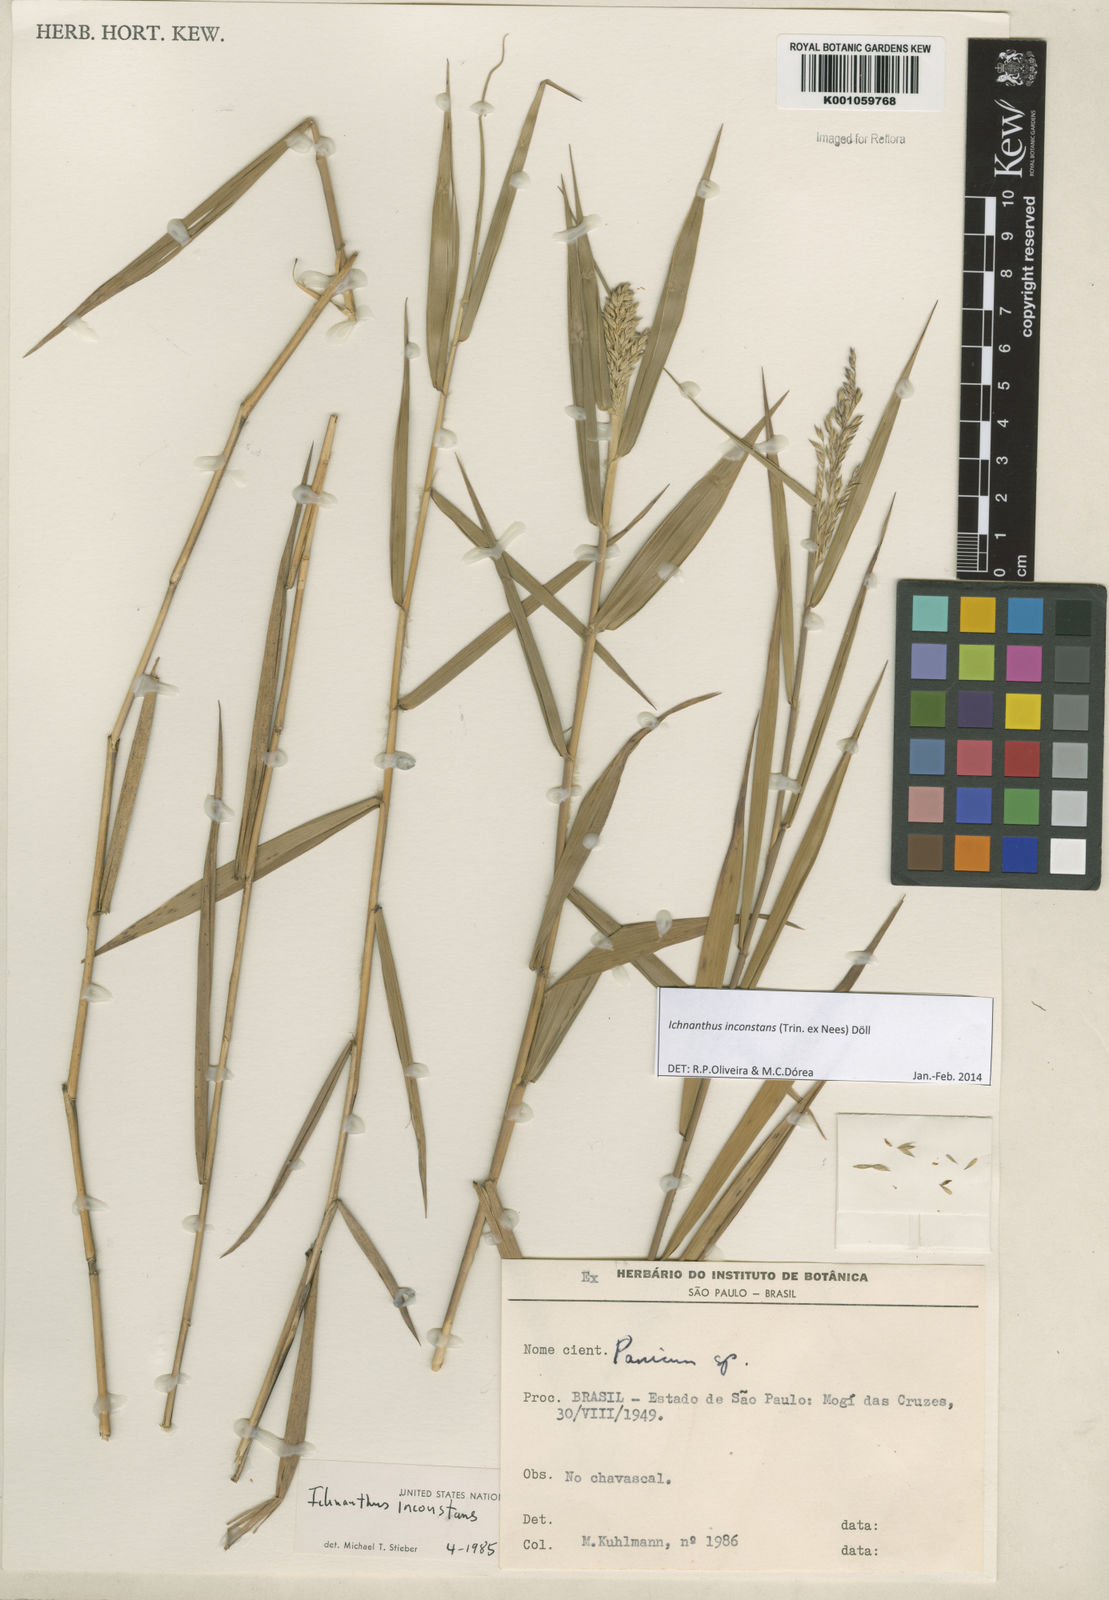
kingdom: Plantae
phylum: Tracheophyta
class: Liliopsida
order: Poales
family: Poaceae
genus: Ichnanthus
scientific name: Ichnanthus
